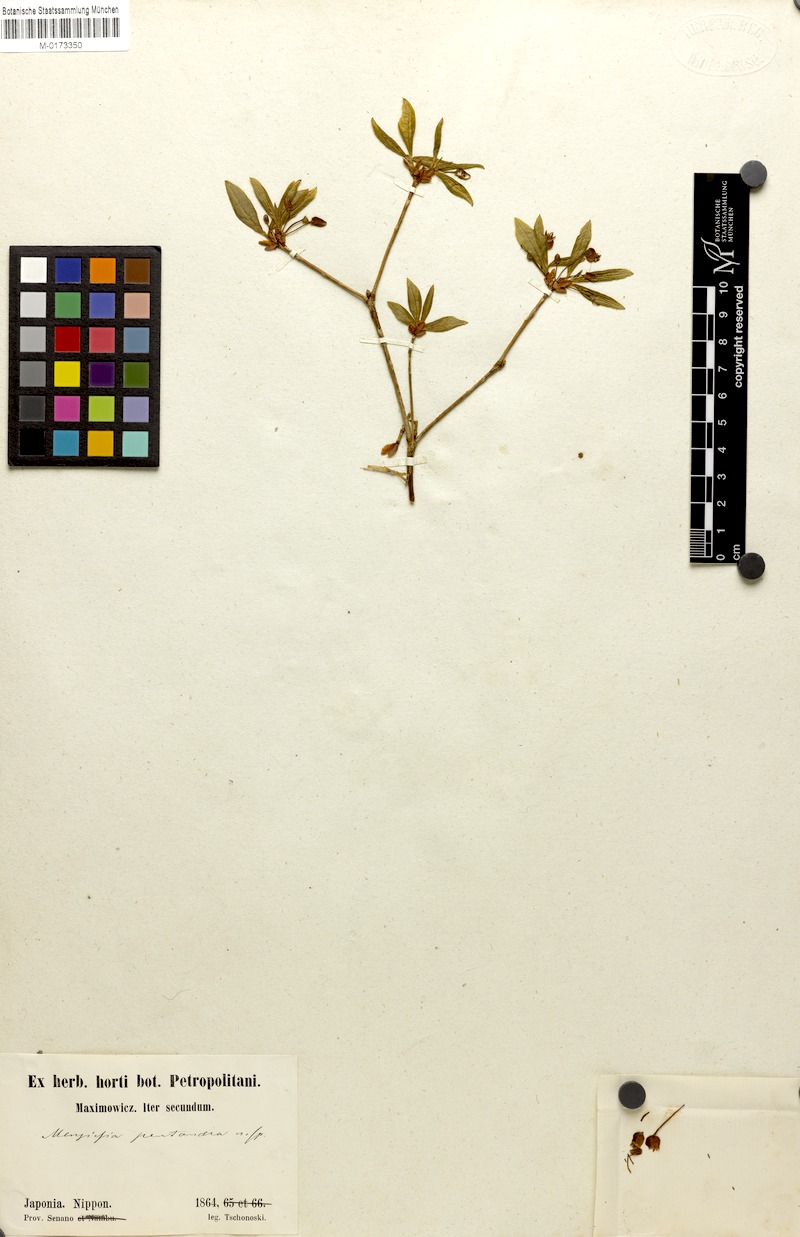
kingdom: Plantae
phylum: Tracheophyta
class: Magnoliopsida
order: Ericales
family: Ericaceae
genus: Rhododendron
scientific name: Rhododendron pentandrum
